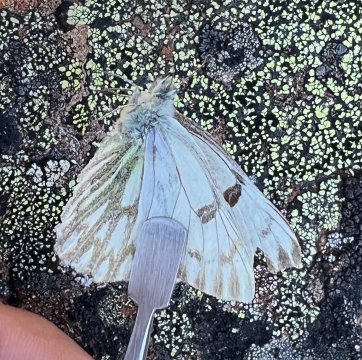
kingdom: Animalia
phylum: Arthropoda
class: Insecta
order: Lepidoptera
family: Pieridae
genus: Pontia
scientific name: Pontia occidentalis
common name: Western White
